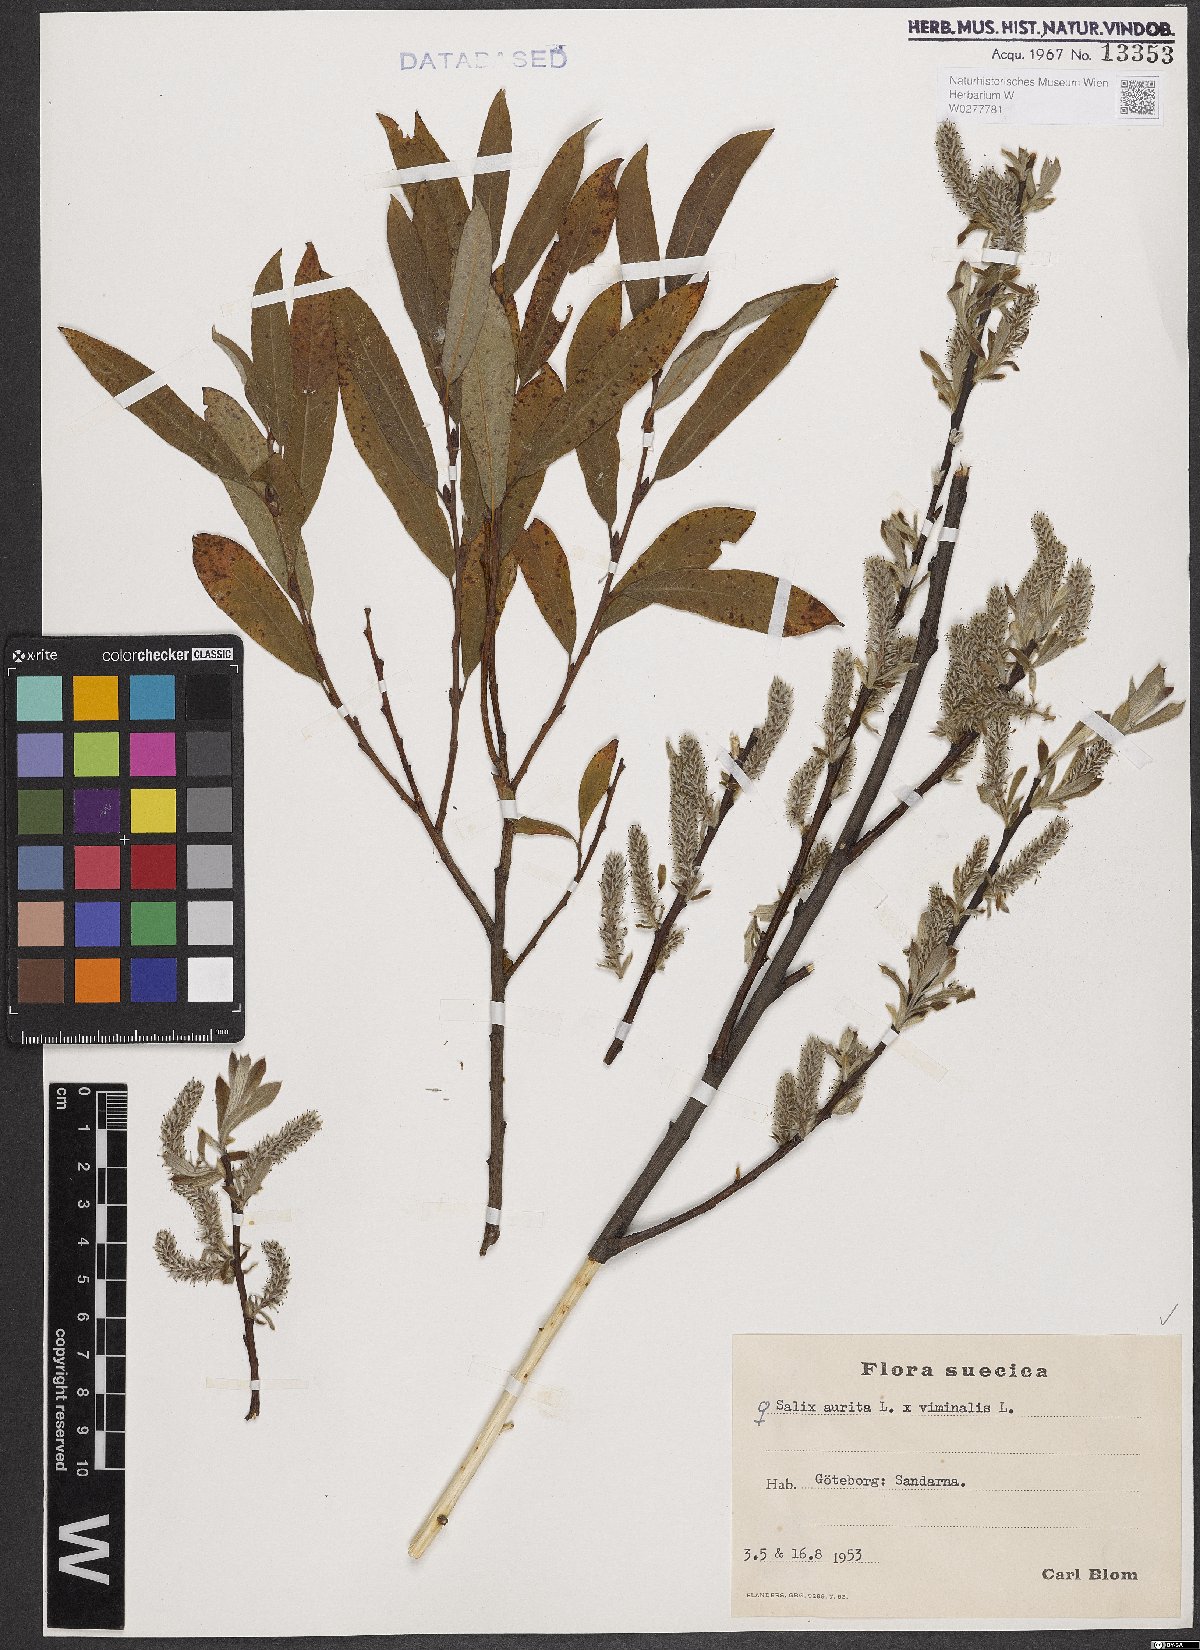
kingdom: Plantae
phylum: Tracheophyta
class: Magnoliopsida
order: Malpighiales
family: Salicaceae
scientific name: Salicaceae
